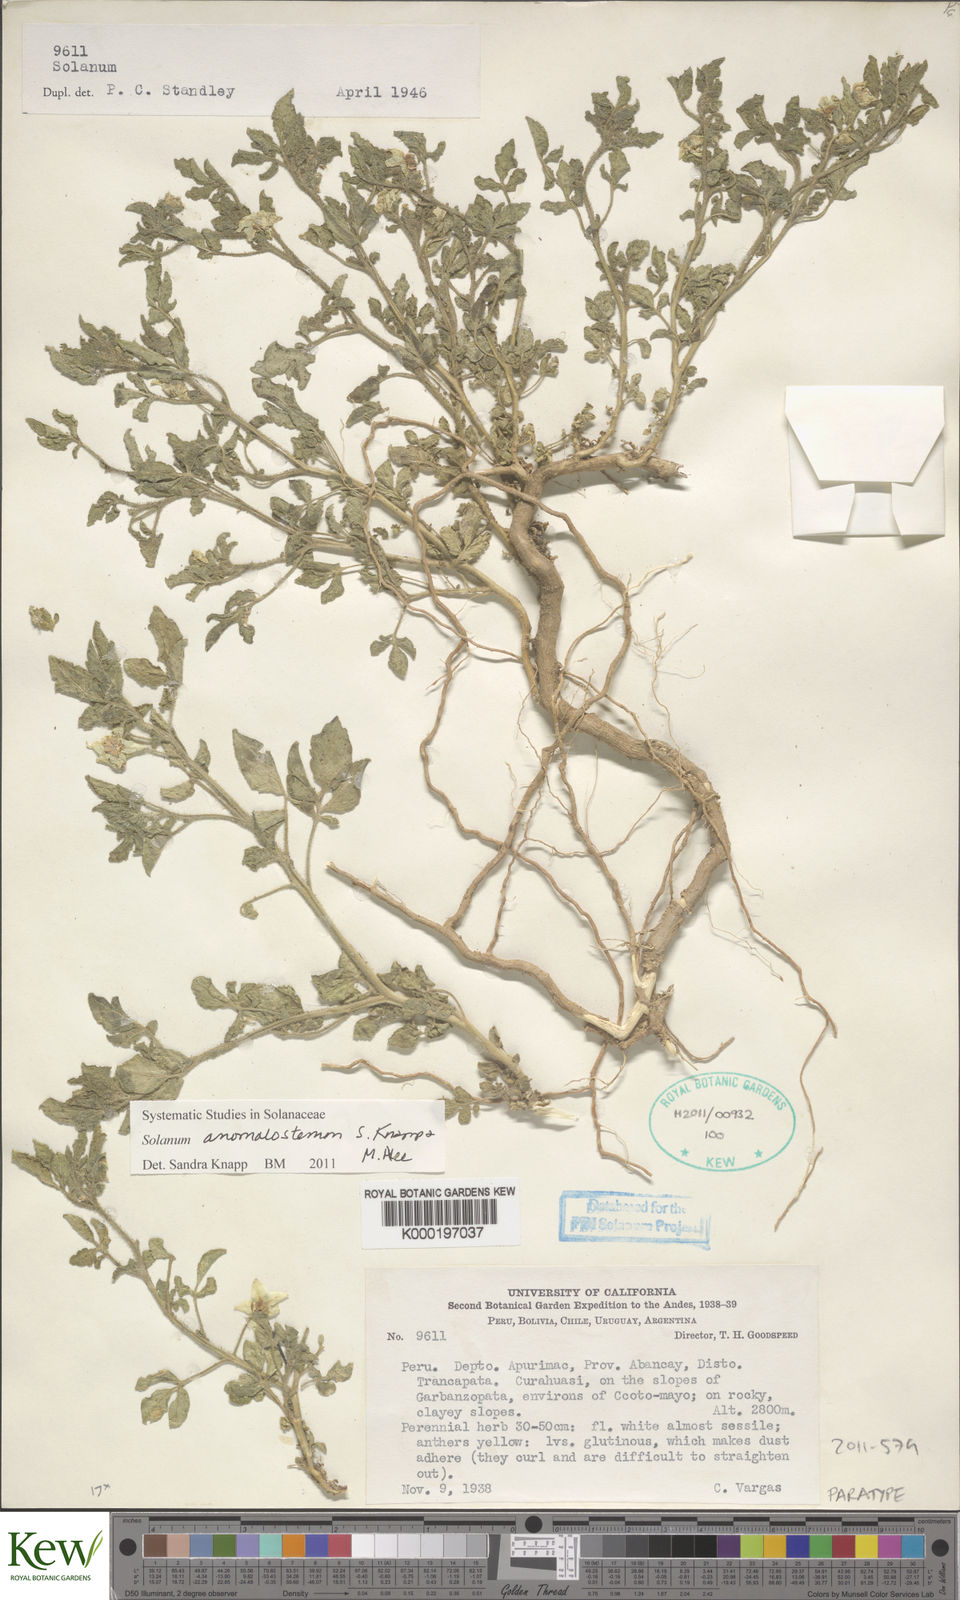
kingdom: Plantae
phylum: Tracheophyta
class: Magnoliopsida
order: Solanales
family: Solanaceae
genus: Solanum
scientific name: Solanum anomalostemon
